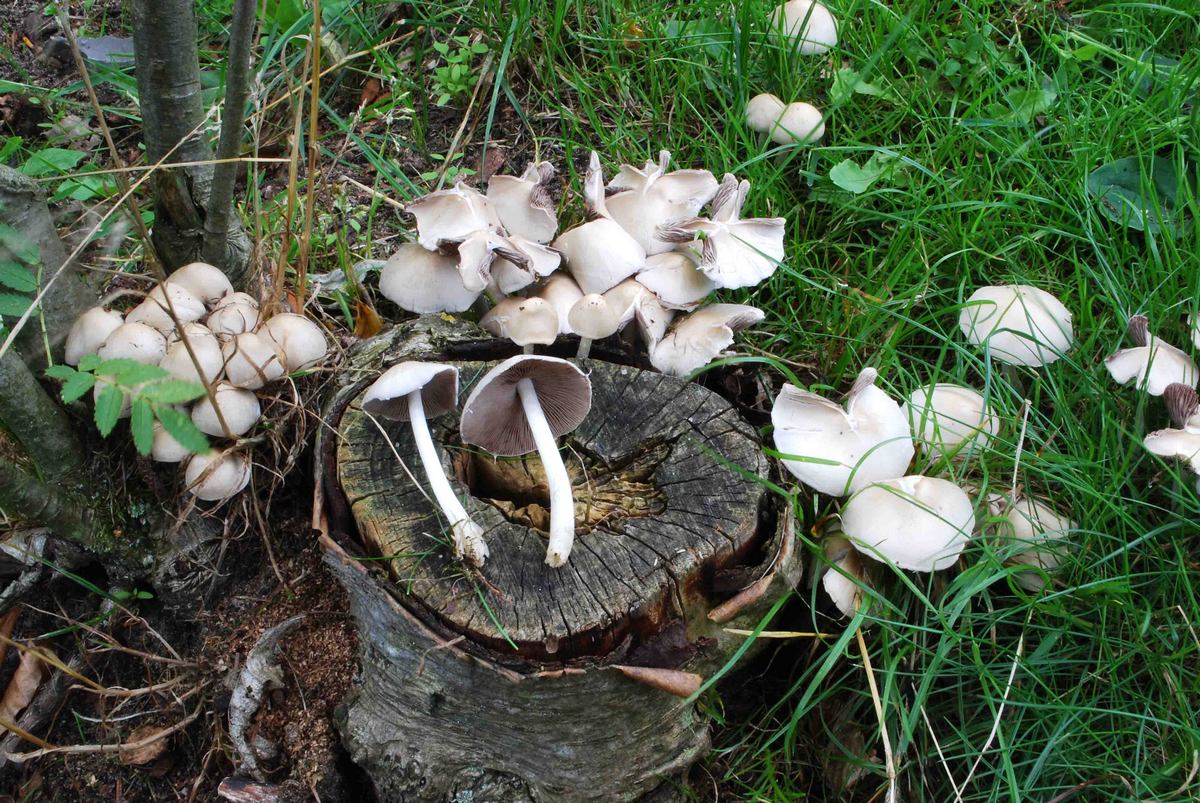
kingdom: Fungi
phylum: Basidiomycota
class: Agaricomycetes
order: Agaricales
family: Psathyrellaceae
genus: Candolleomyces
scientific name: Candolleomyces candolleanus
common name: Candolles mørkhat
